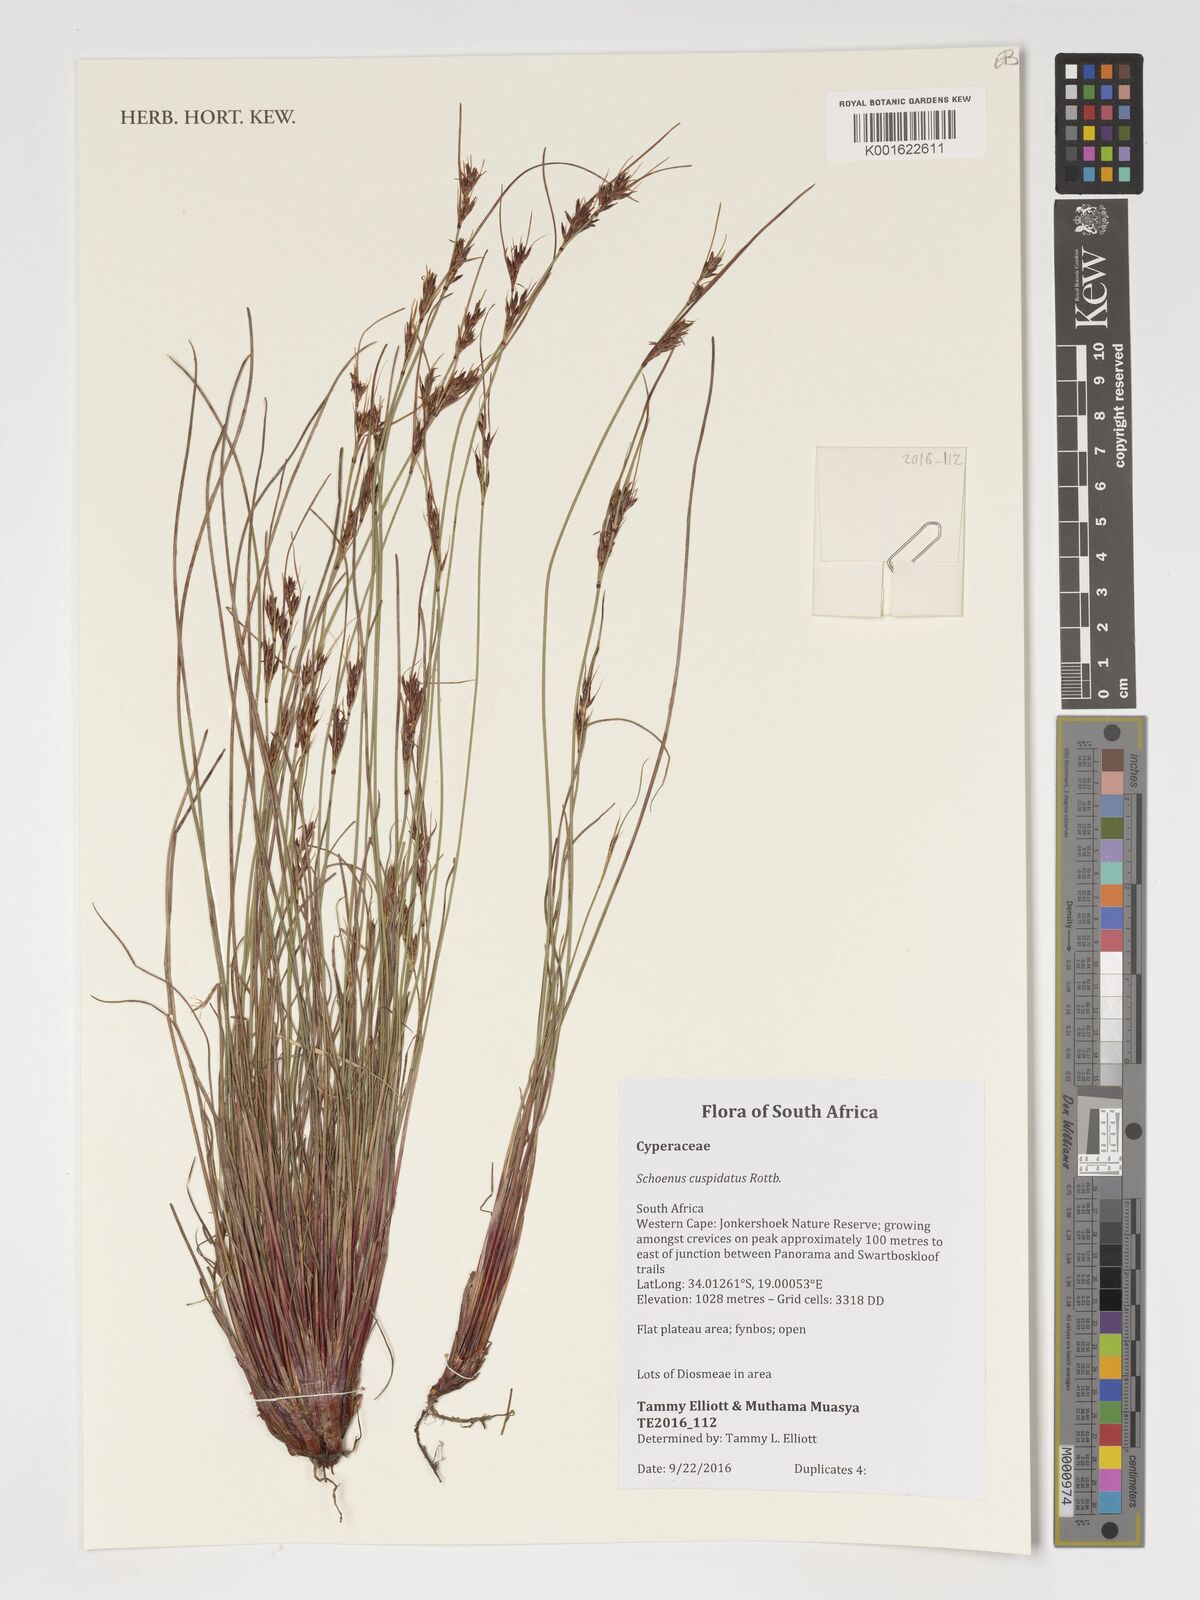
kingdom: Plantae
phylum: Tracheophyta
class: Liliopsida
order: Poales
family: Cyperaceae
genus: Schoenus
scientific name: Schoenus cuspidatus
